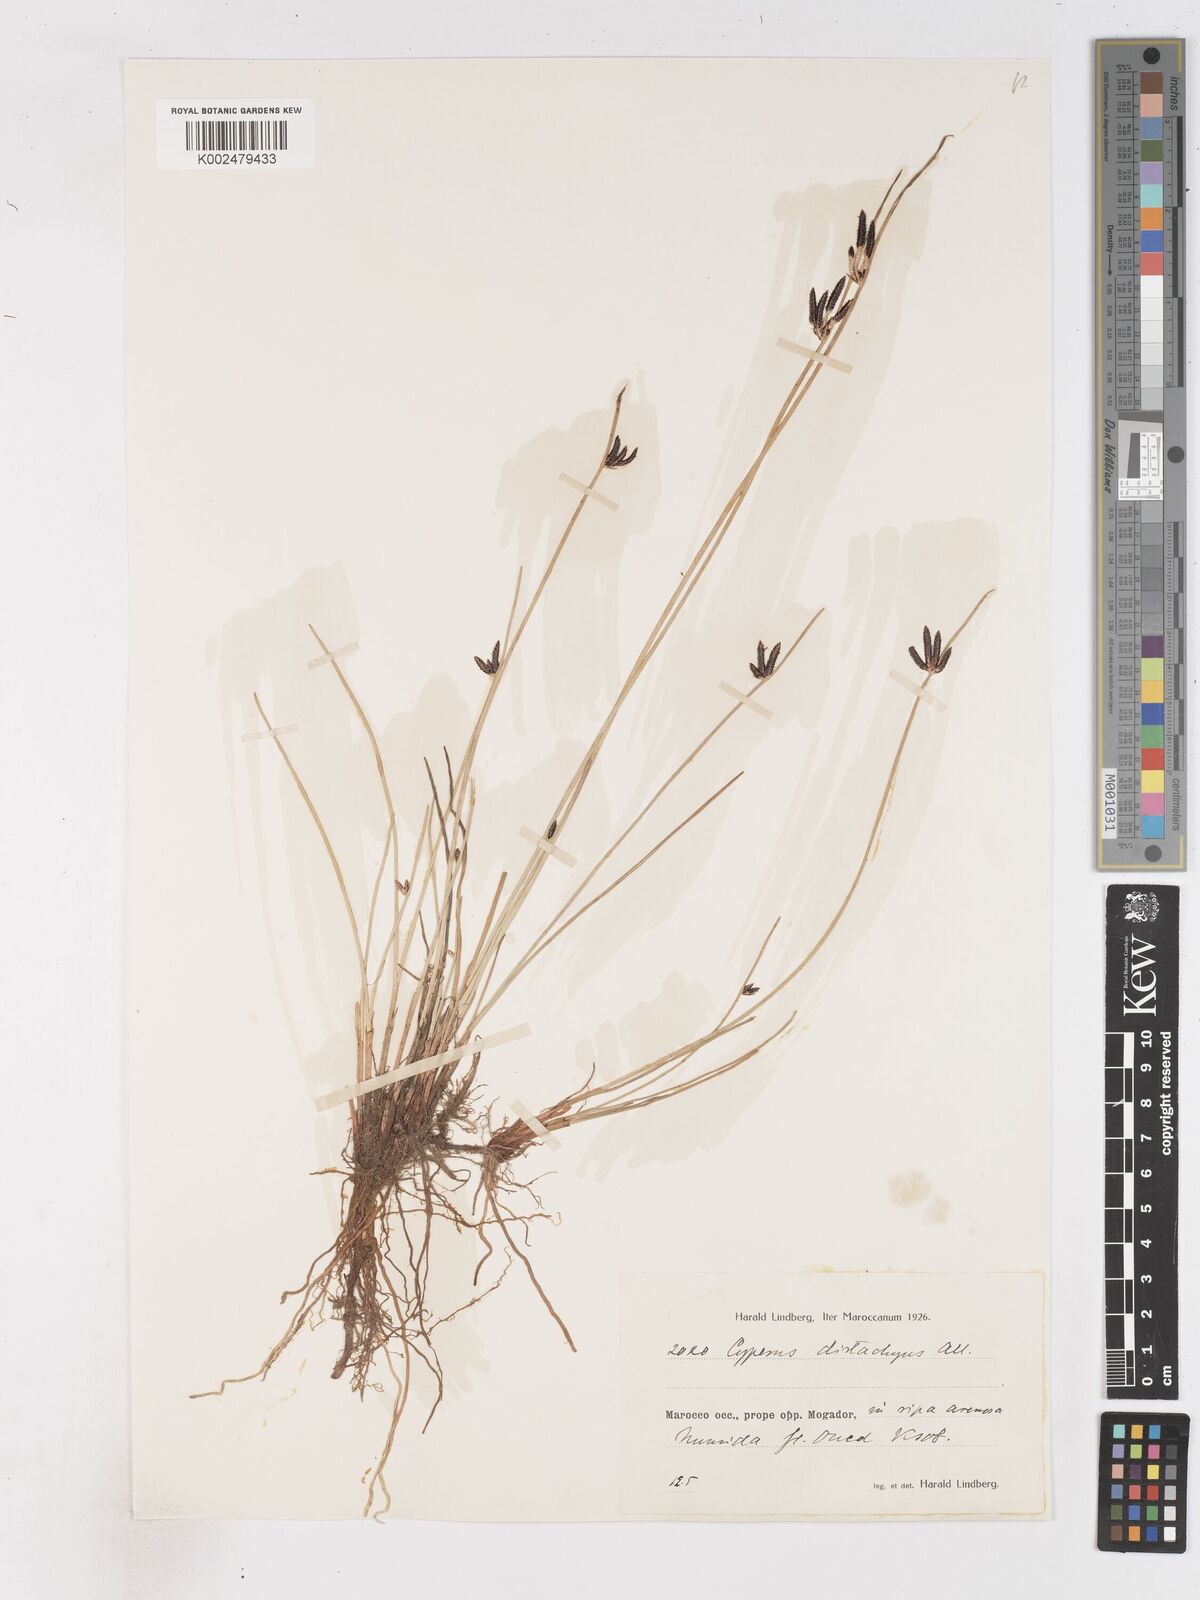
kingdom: Plantae
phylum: Tracheophyta
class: Liliopsida
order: Poales
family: Cyperaceae
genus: Cyperus
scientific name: Cyperus laevigatus
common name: Smooth flat sedge
